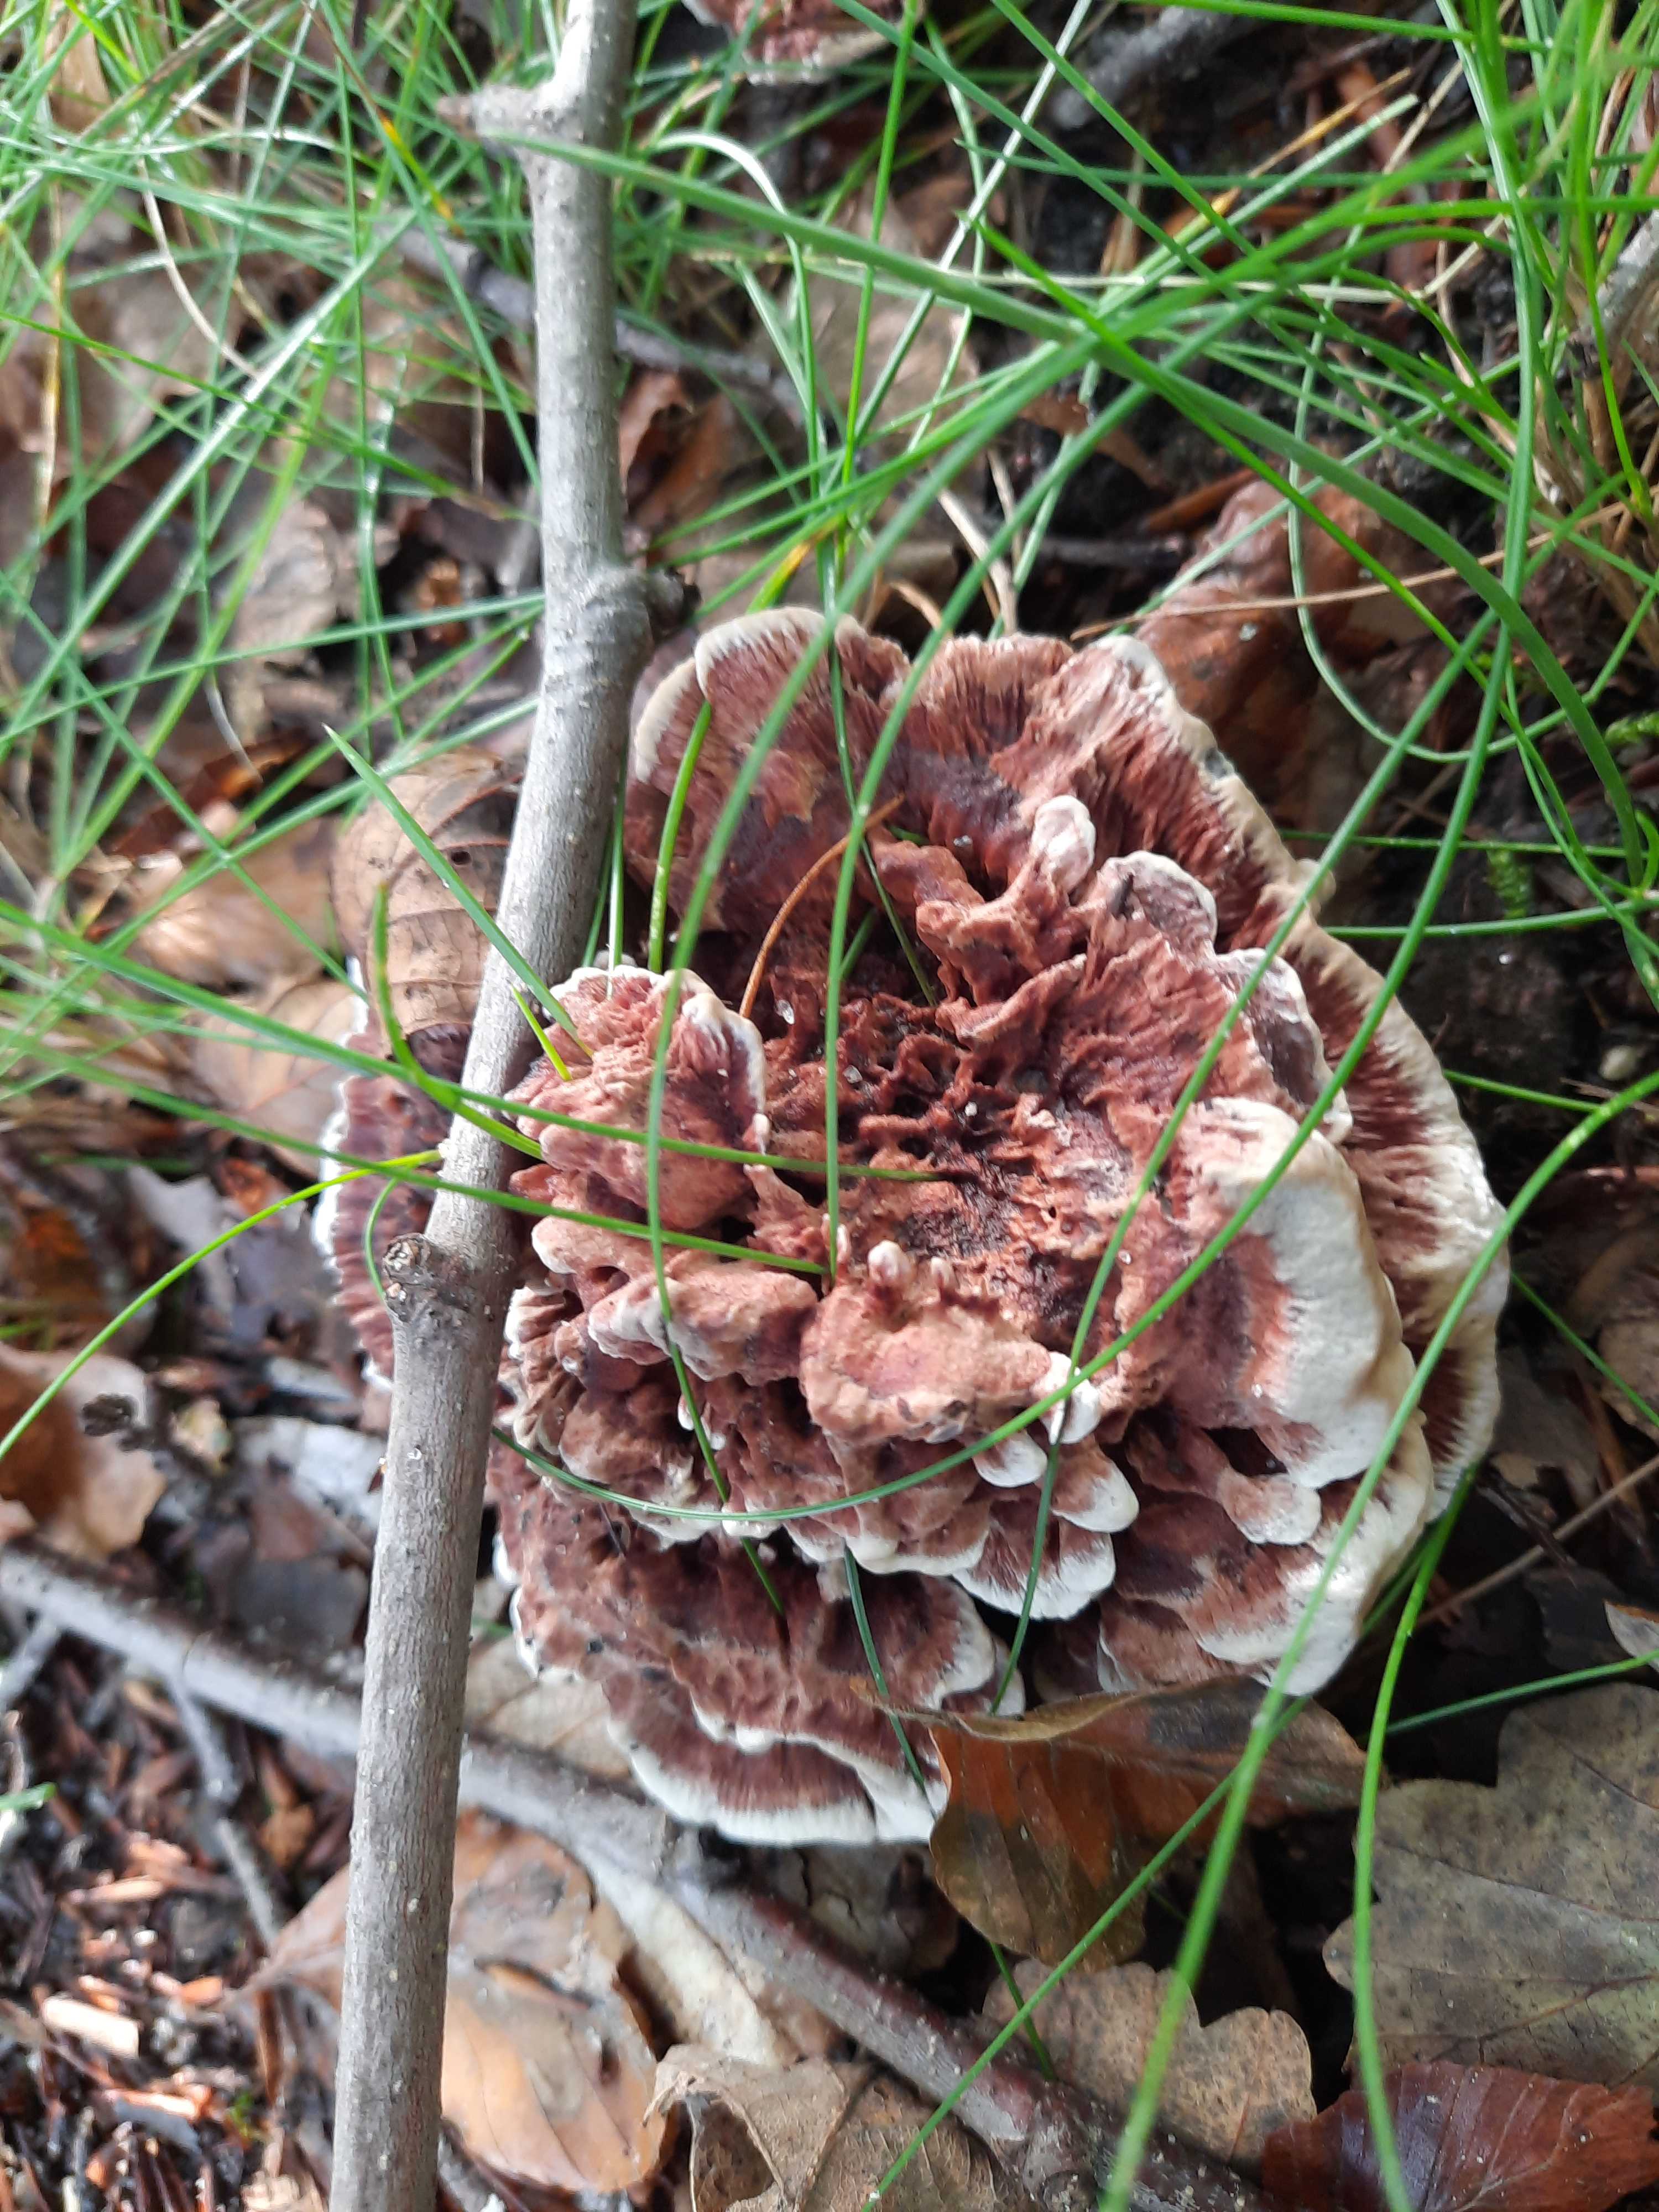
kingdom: Fungi
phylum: Basidiomycota
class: Agaricomycetes
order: Thelephorales
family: Bankeraceae
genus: Hydnellum
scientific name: Hydnellum concrescens
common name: bæltet korkpigsvamp
